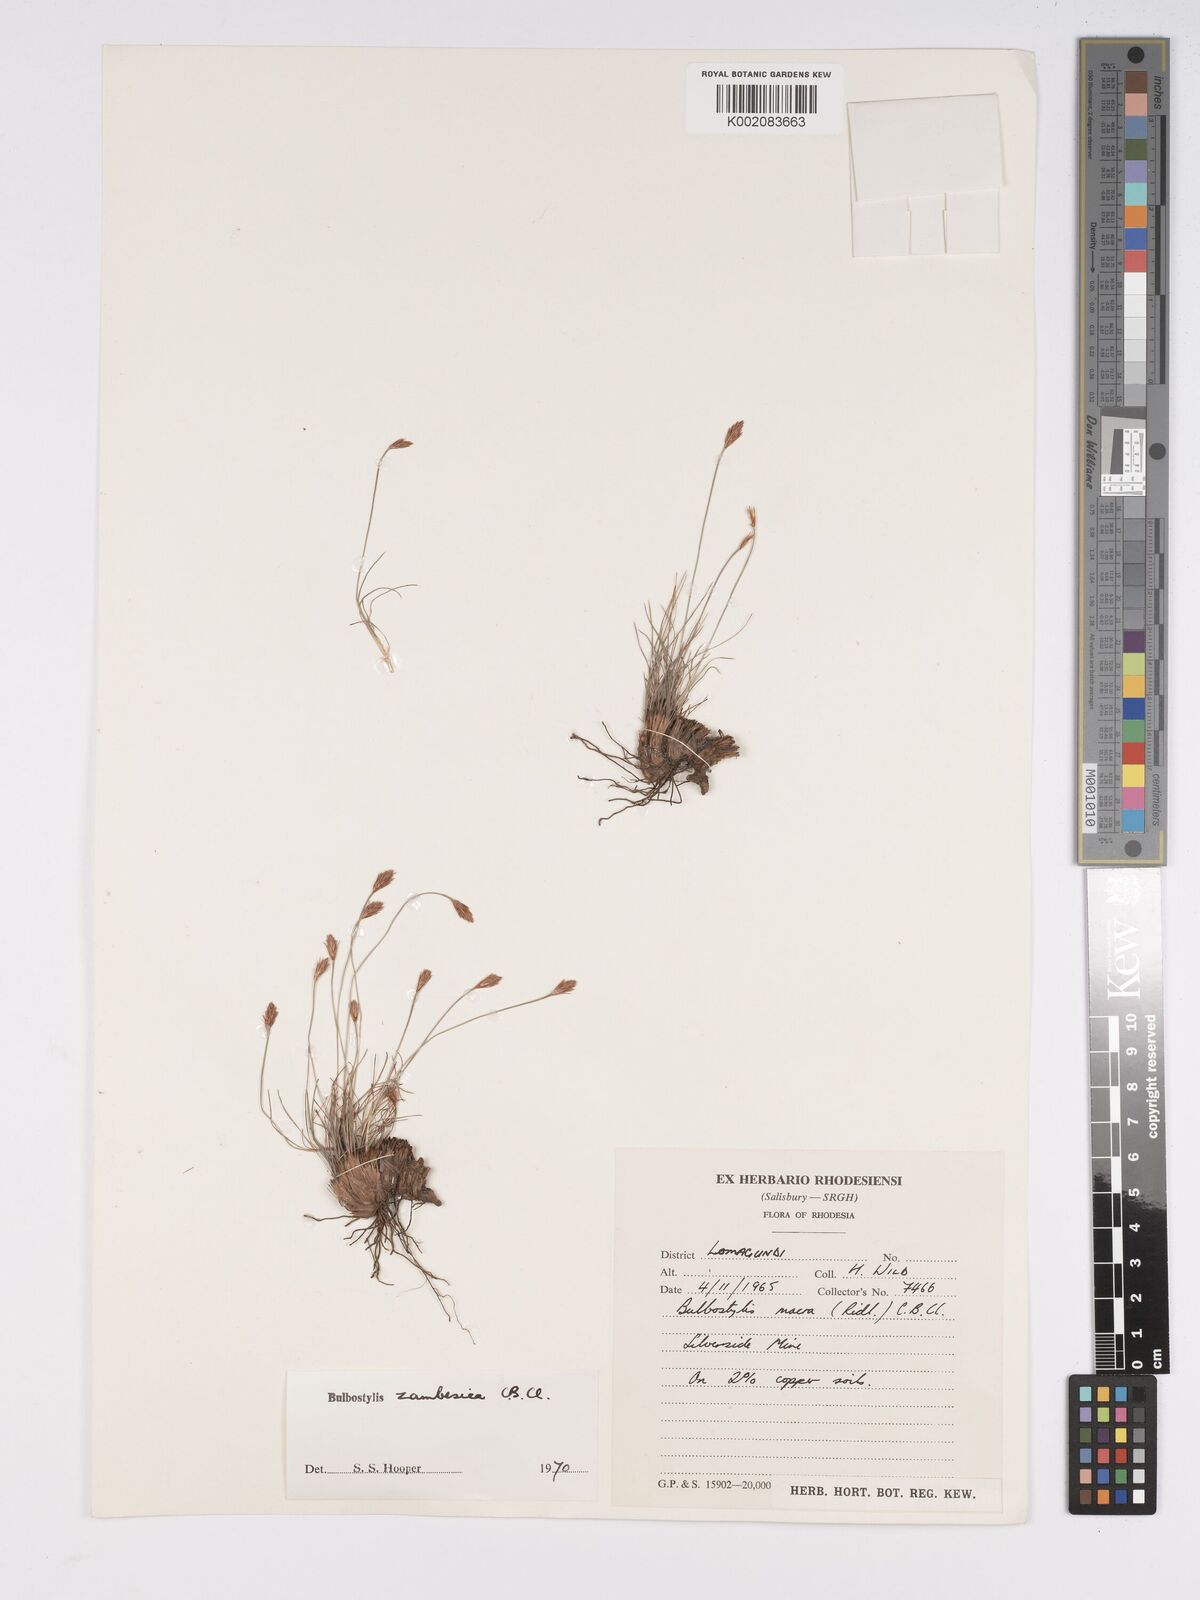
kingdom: Plantae
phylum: Tracheophyta
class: Liliopsida
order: Poales
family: Cyperaceae
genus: Bulbostylis
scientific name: Bulbostylis macra
